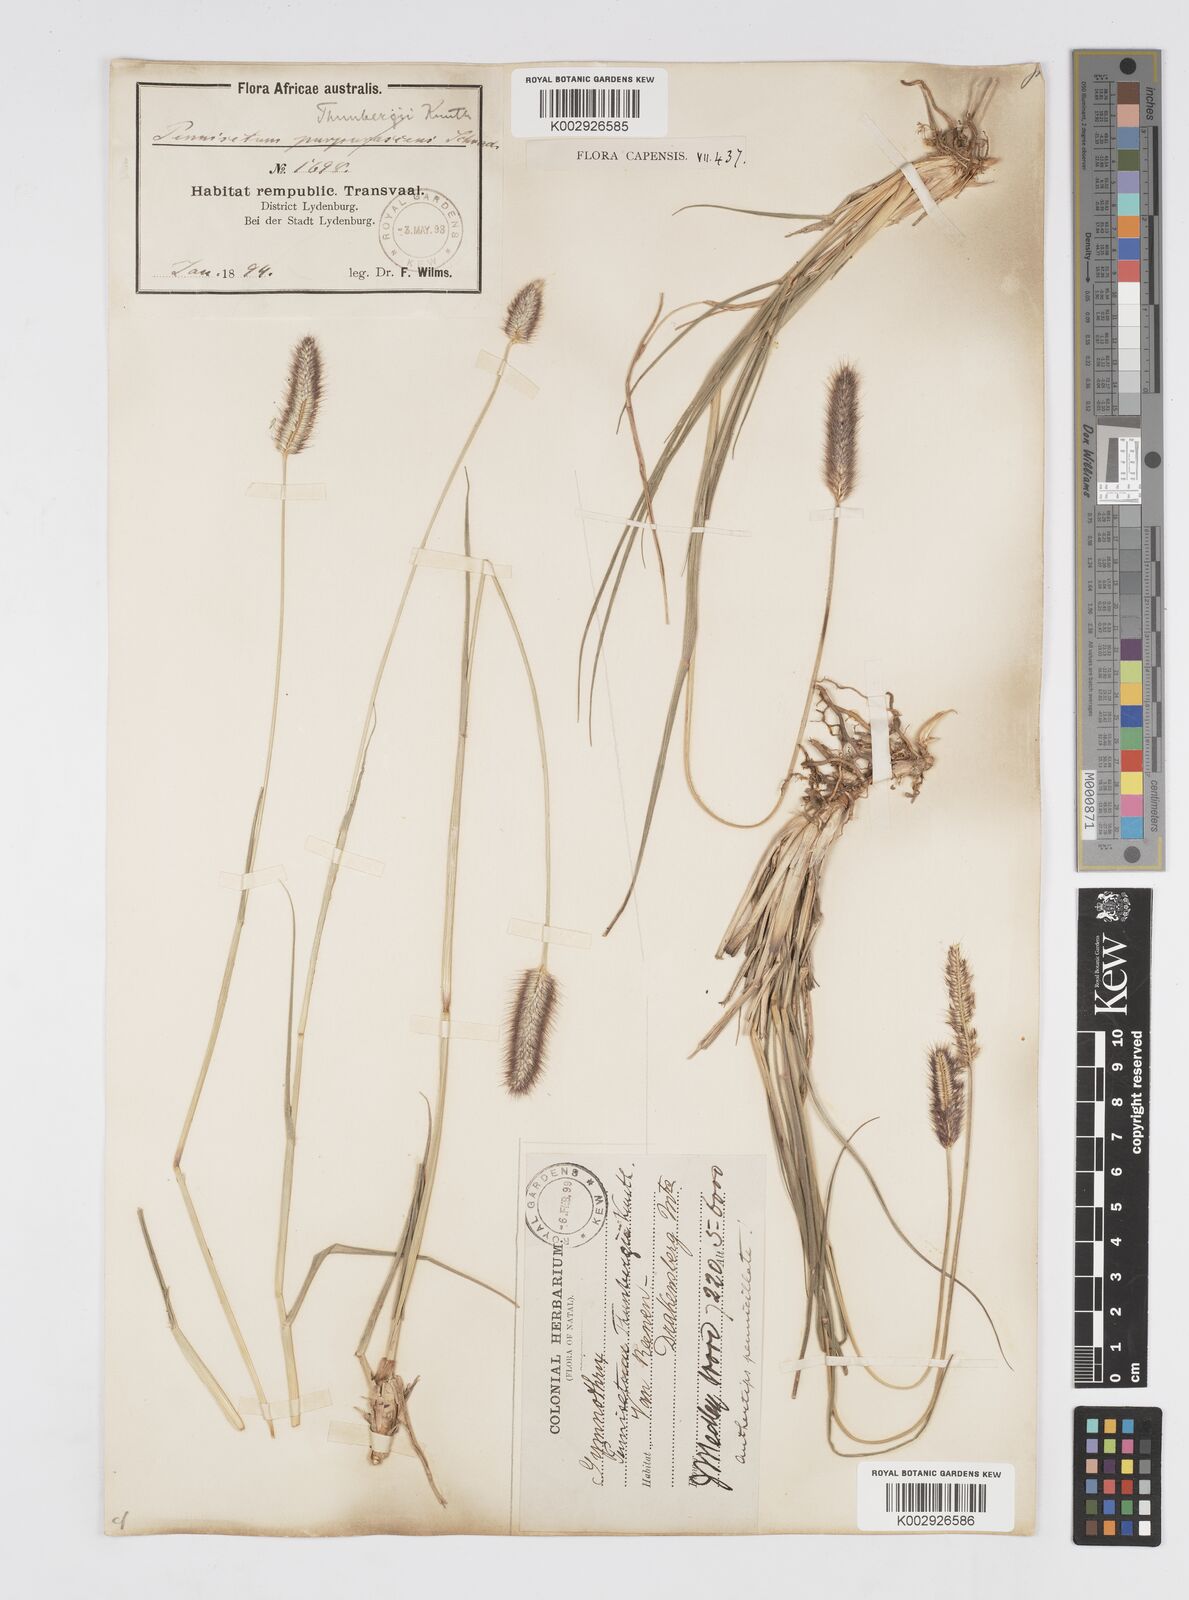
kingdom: Plantae
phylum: Tracheophyta
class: Liliopsida
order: Poales
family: Poaceae
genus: Cenchrus
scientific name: Cenchrus geniculatus
